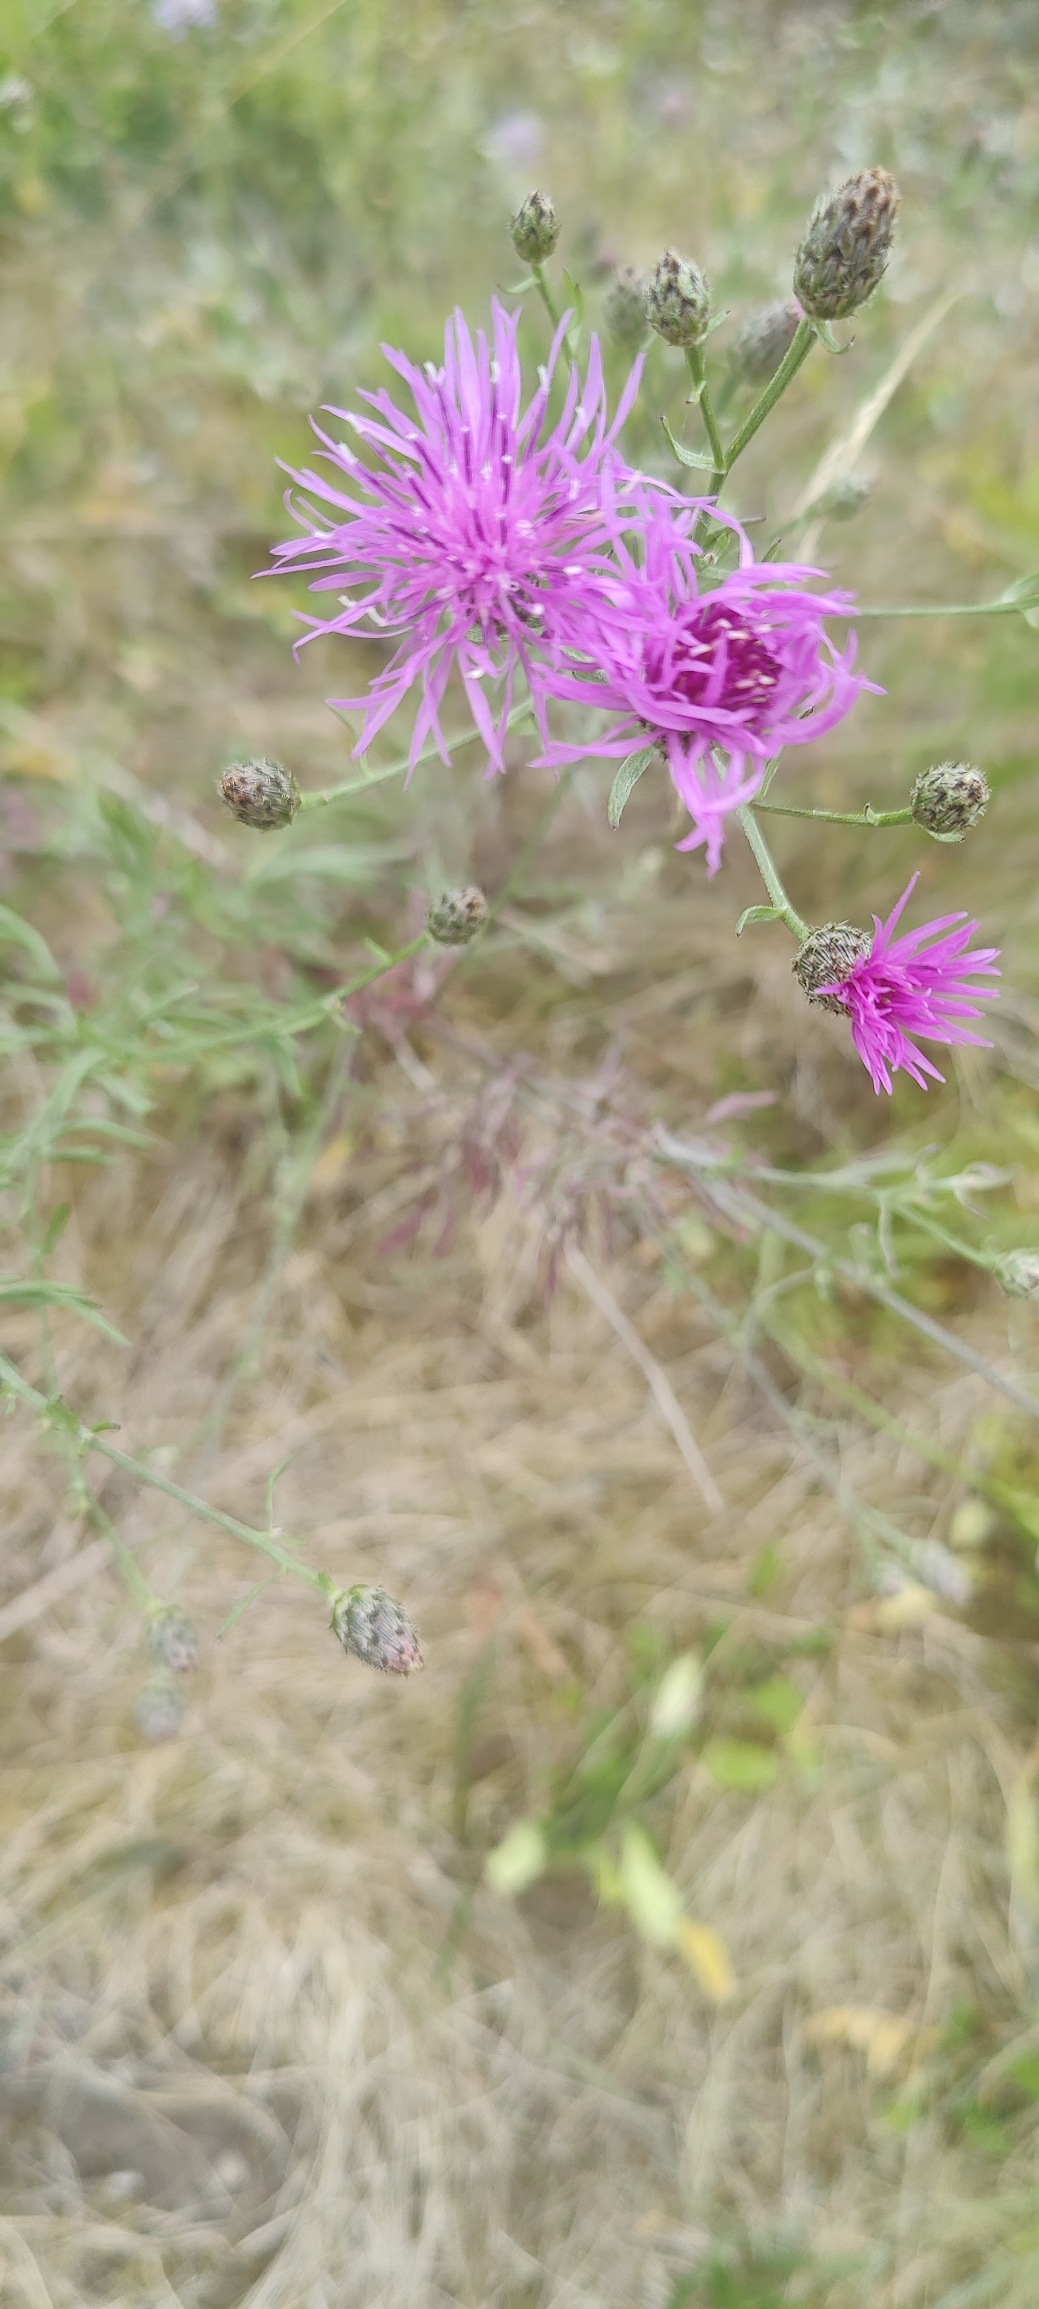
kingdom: Plantae
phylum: Tracheophyta
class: Magnoliopsida
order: Asterales
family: Asteraceae
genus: Centaurea
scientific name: Centaurea stoebe
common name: Mangegrenet knopurt
